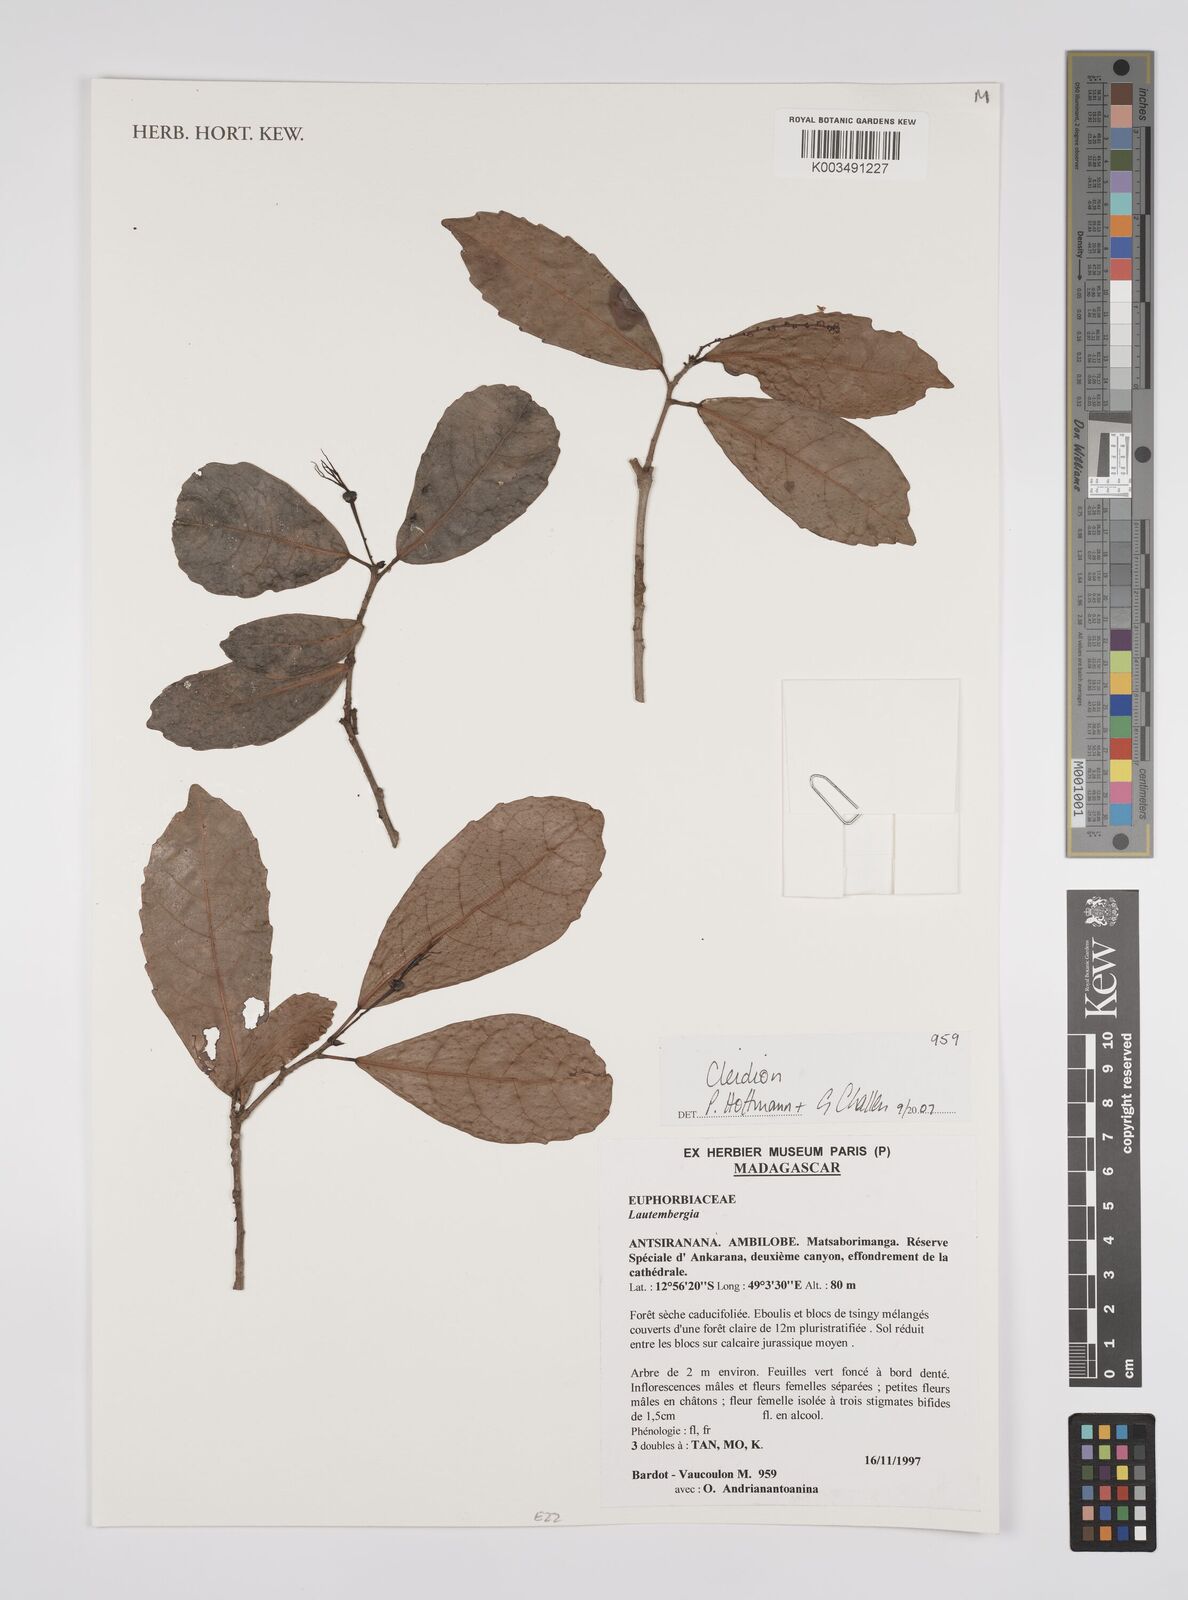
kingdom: Plantae
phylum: Tracheophyta
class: Magnoliopsida
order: Malpighiales
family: Euphorbiaceae
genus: Cleidion
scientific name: Cleidion
